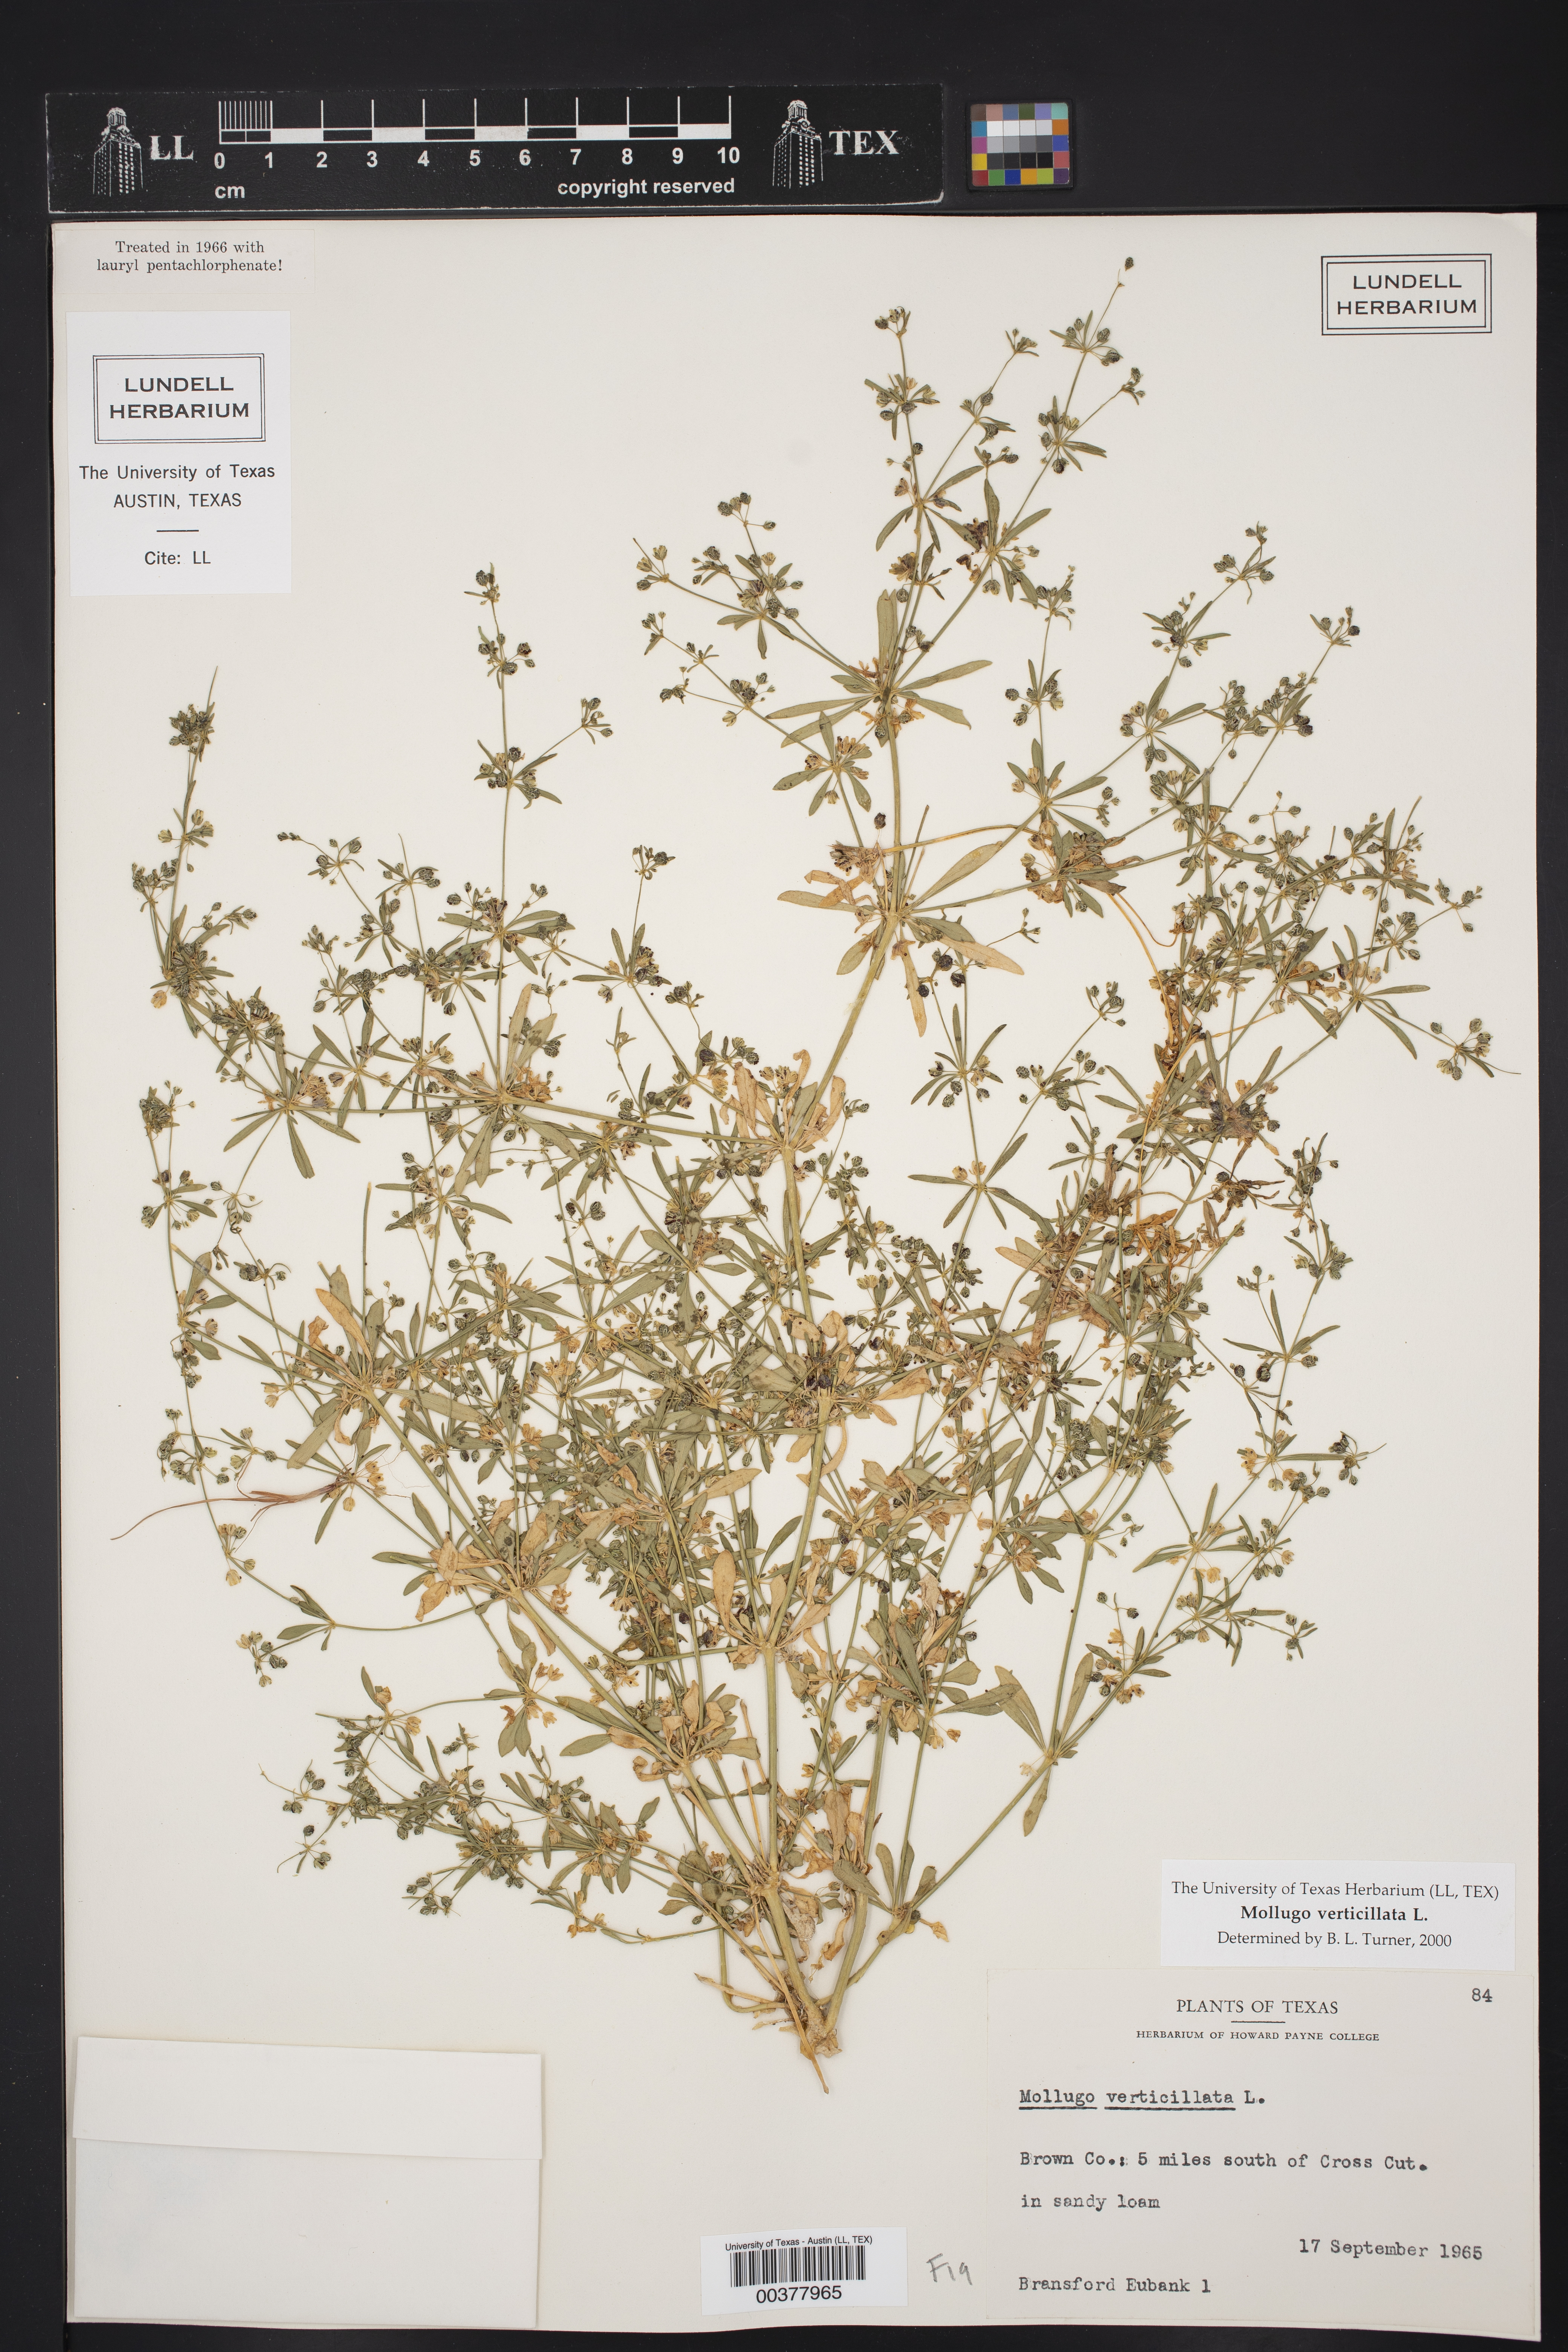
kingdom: Plantae
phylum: Tracheophyta
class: Magnoliopsida
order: Caryophyllales
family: Molluginaceae
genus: Mollugo
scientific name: Mollugo verticillata
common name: Green carpetweed
